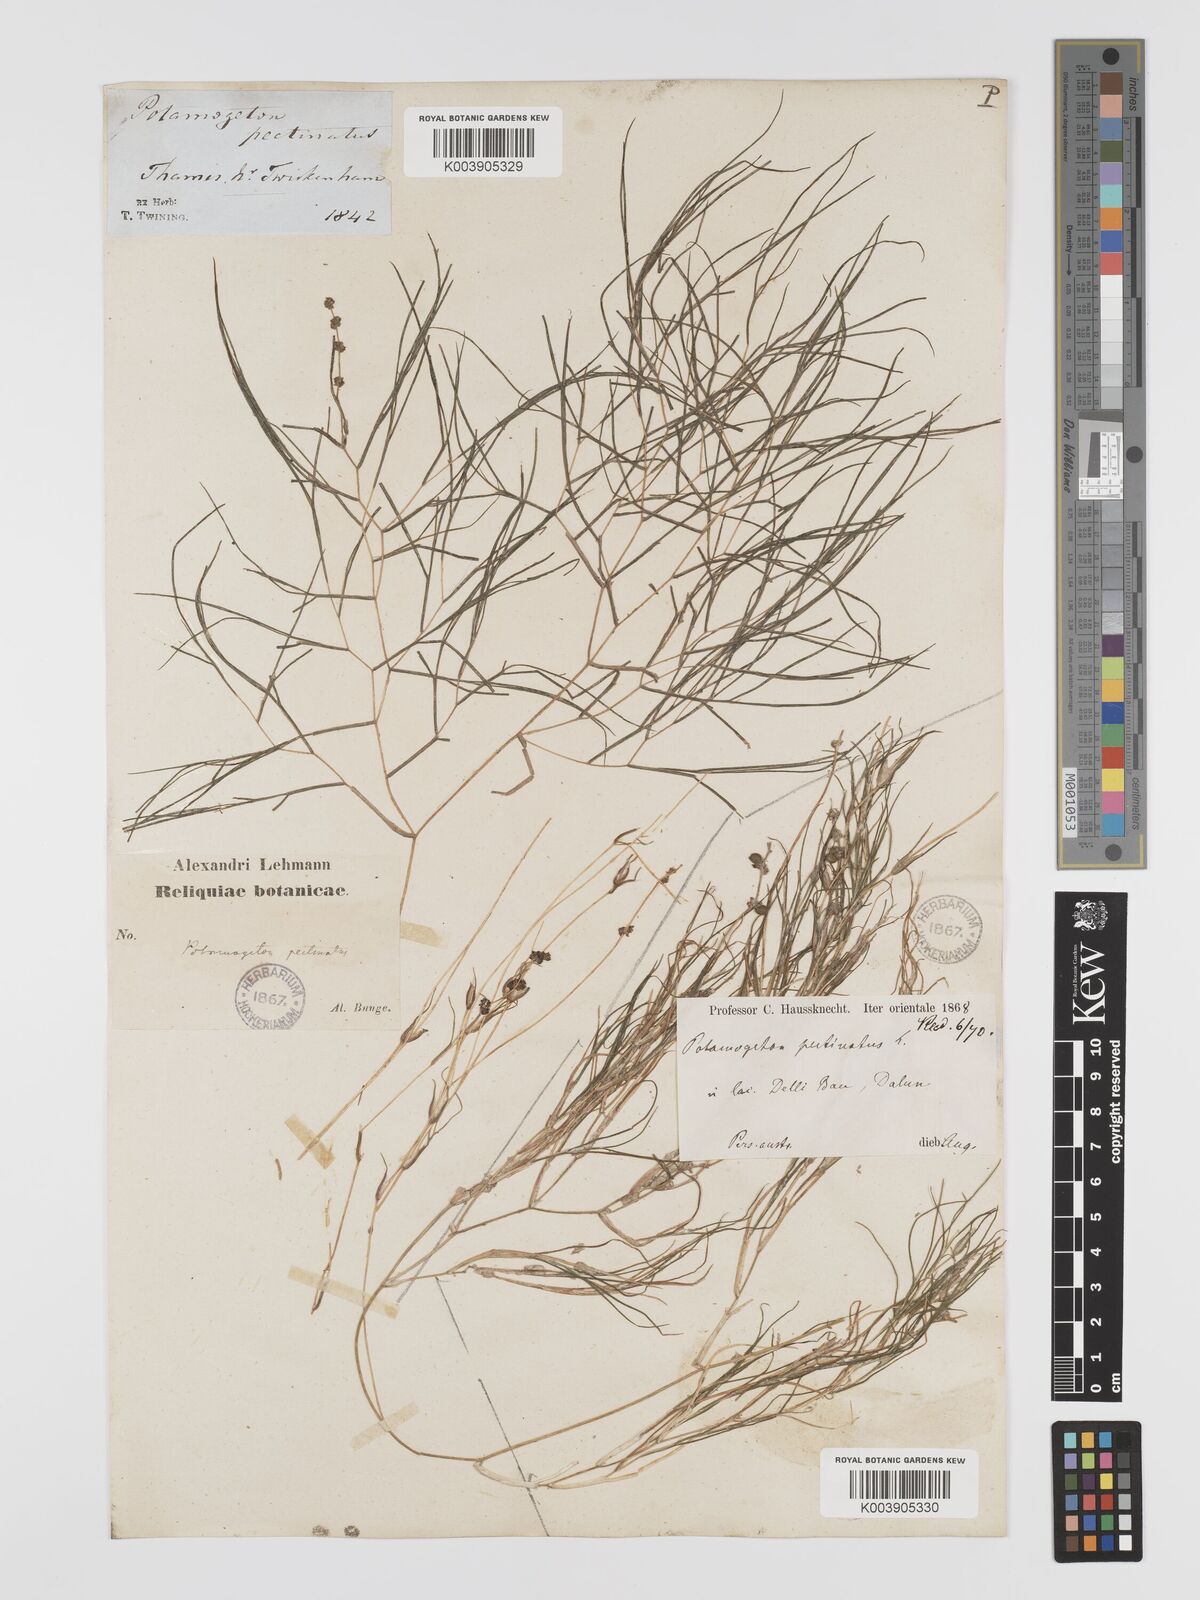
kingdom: Plantae
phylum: Tracheophyta
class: Liliopsida
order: Alismatales
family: Potamogetonaceae
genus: Stuckenia
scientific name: Stuckenia pectinata
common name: Sago pondweed
